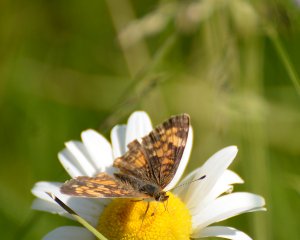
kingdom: Animalia
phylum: Arthropoda
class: Insecta
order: Lepidoptera
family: Nymphalidae
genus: Phyciodes
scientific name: Phyciodes tharos
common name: Northern Crescent
